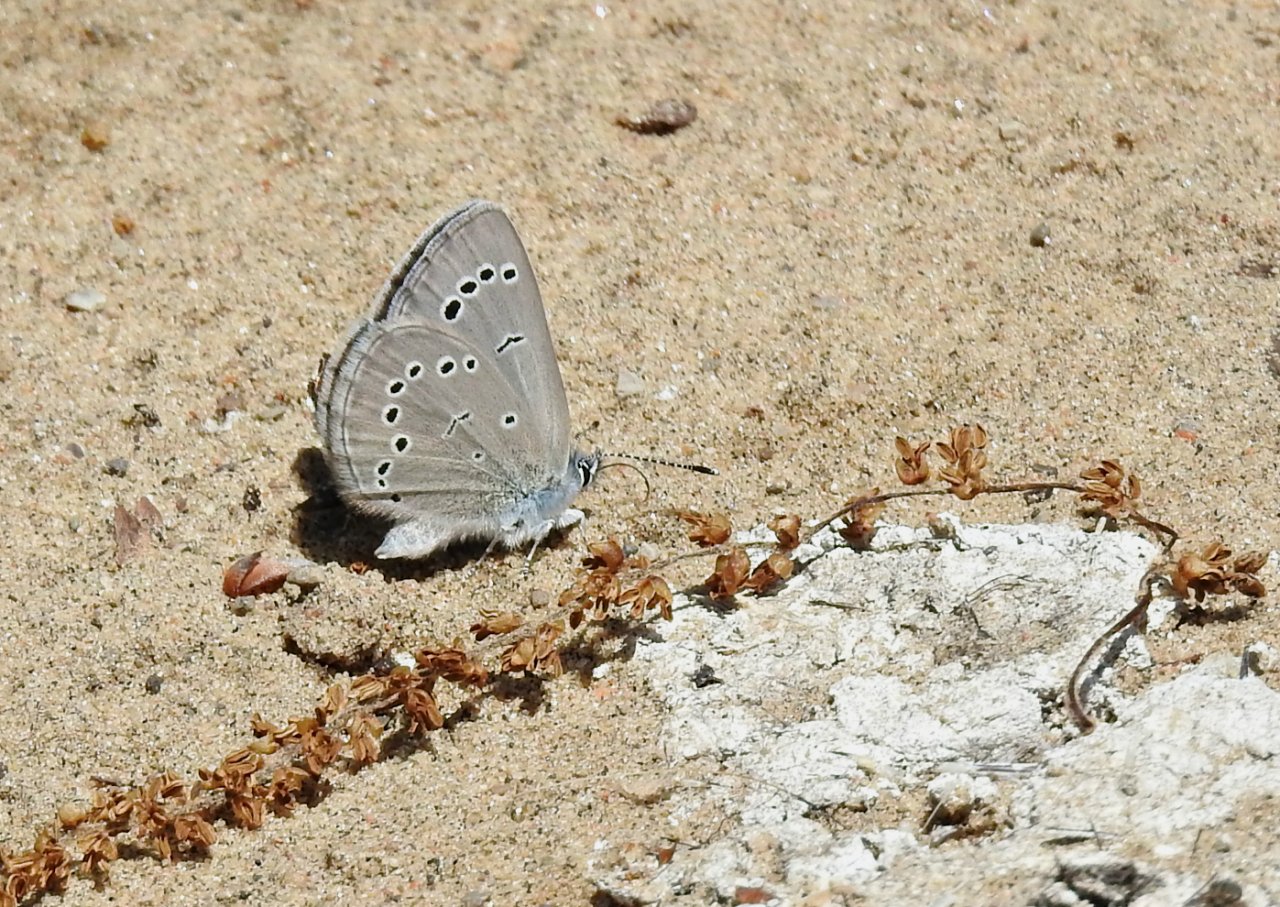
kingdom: Animalia
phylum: Arthropoda
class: Insecta
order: Lepidoptera
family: Lycaenidae
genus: Glaucopsyche
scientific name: Glaucopsyche lygdamus
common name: Silvery Blue
